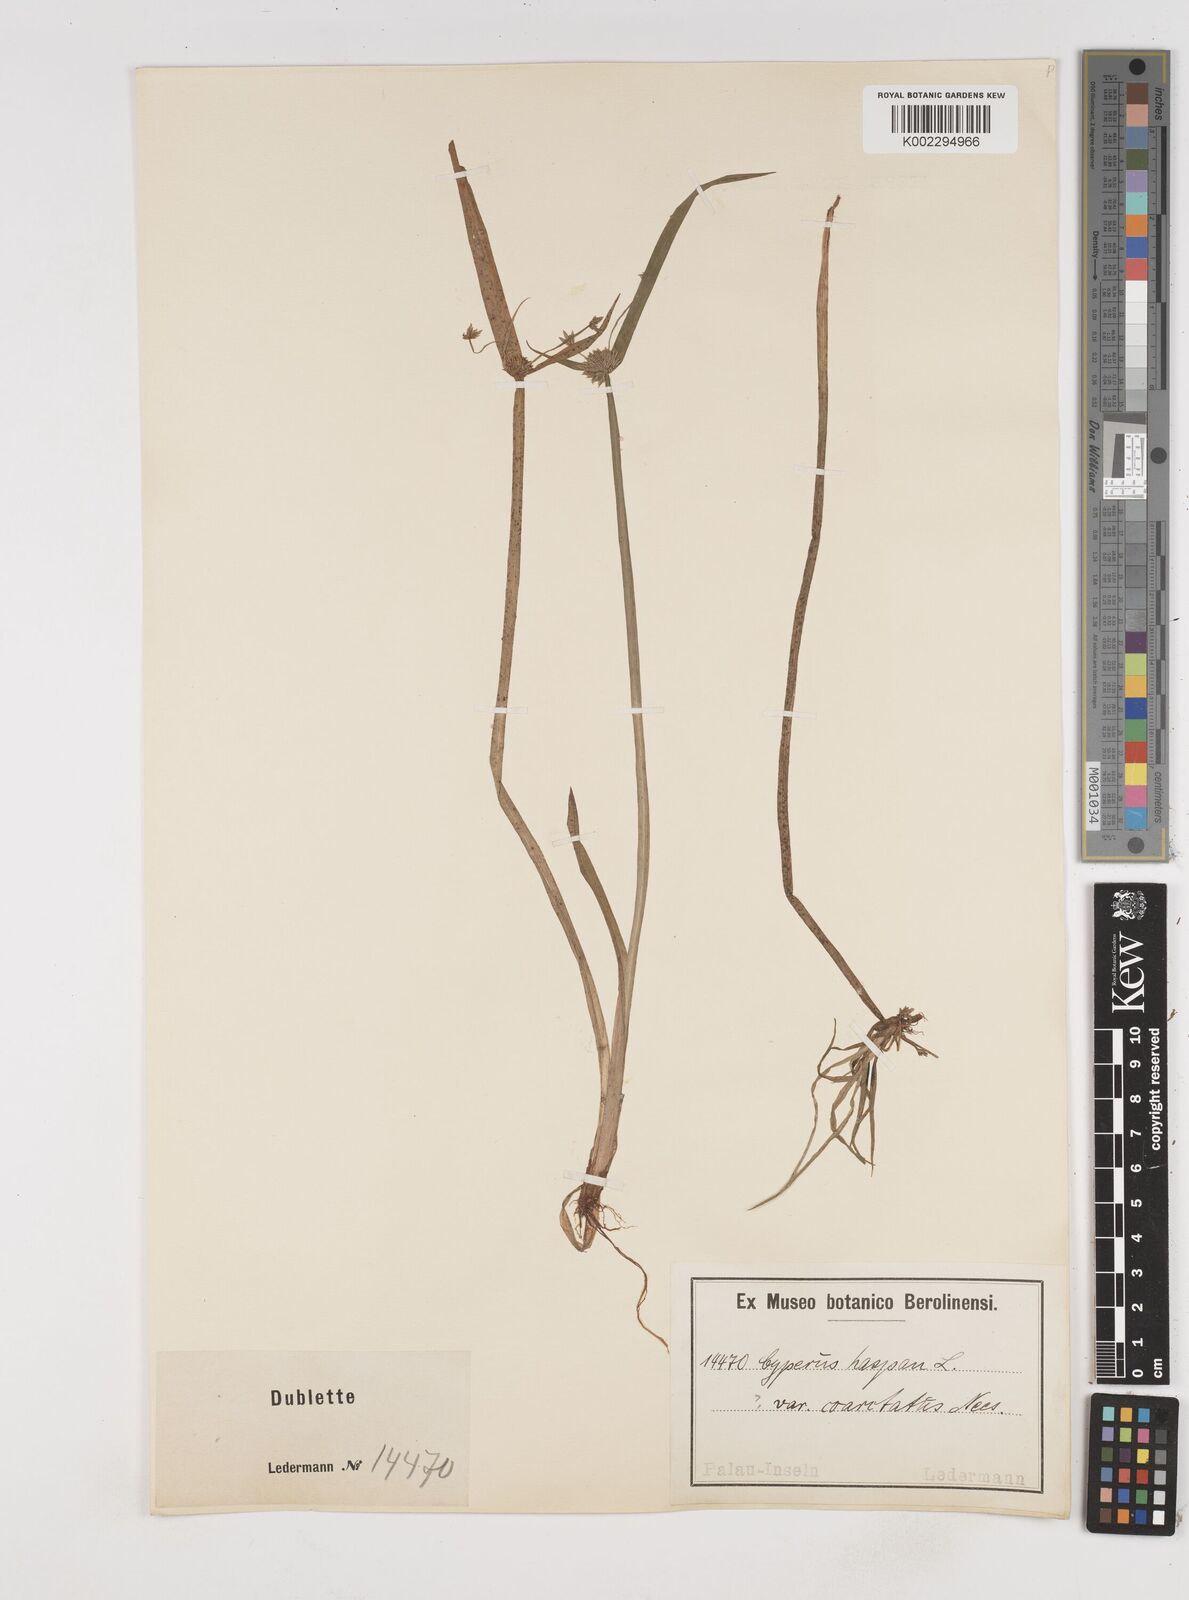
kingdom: Plantae
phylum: Tracheophyta
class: Liliopsida
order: Poales
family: Cyperaceae
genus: Cyperus
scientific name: Cyperus haspan
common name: Haspan flatsedge
